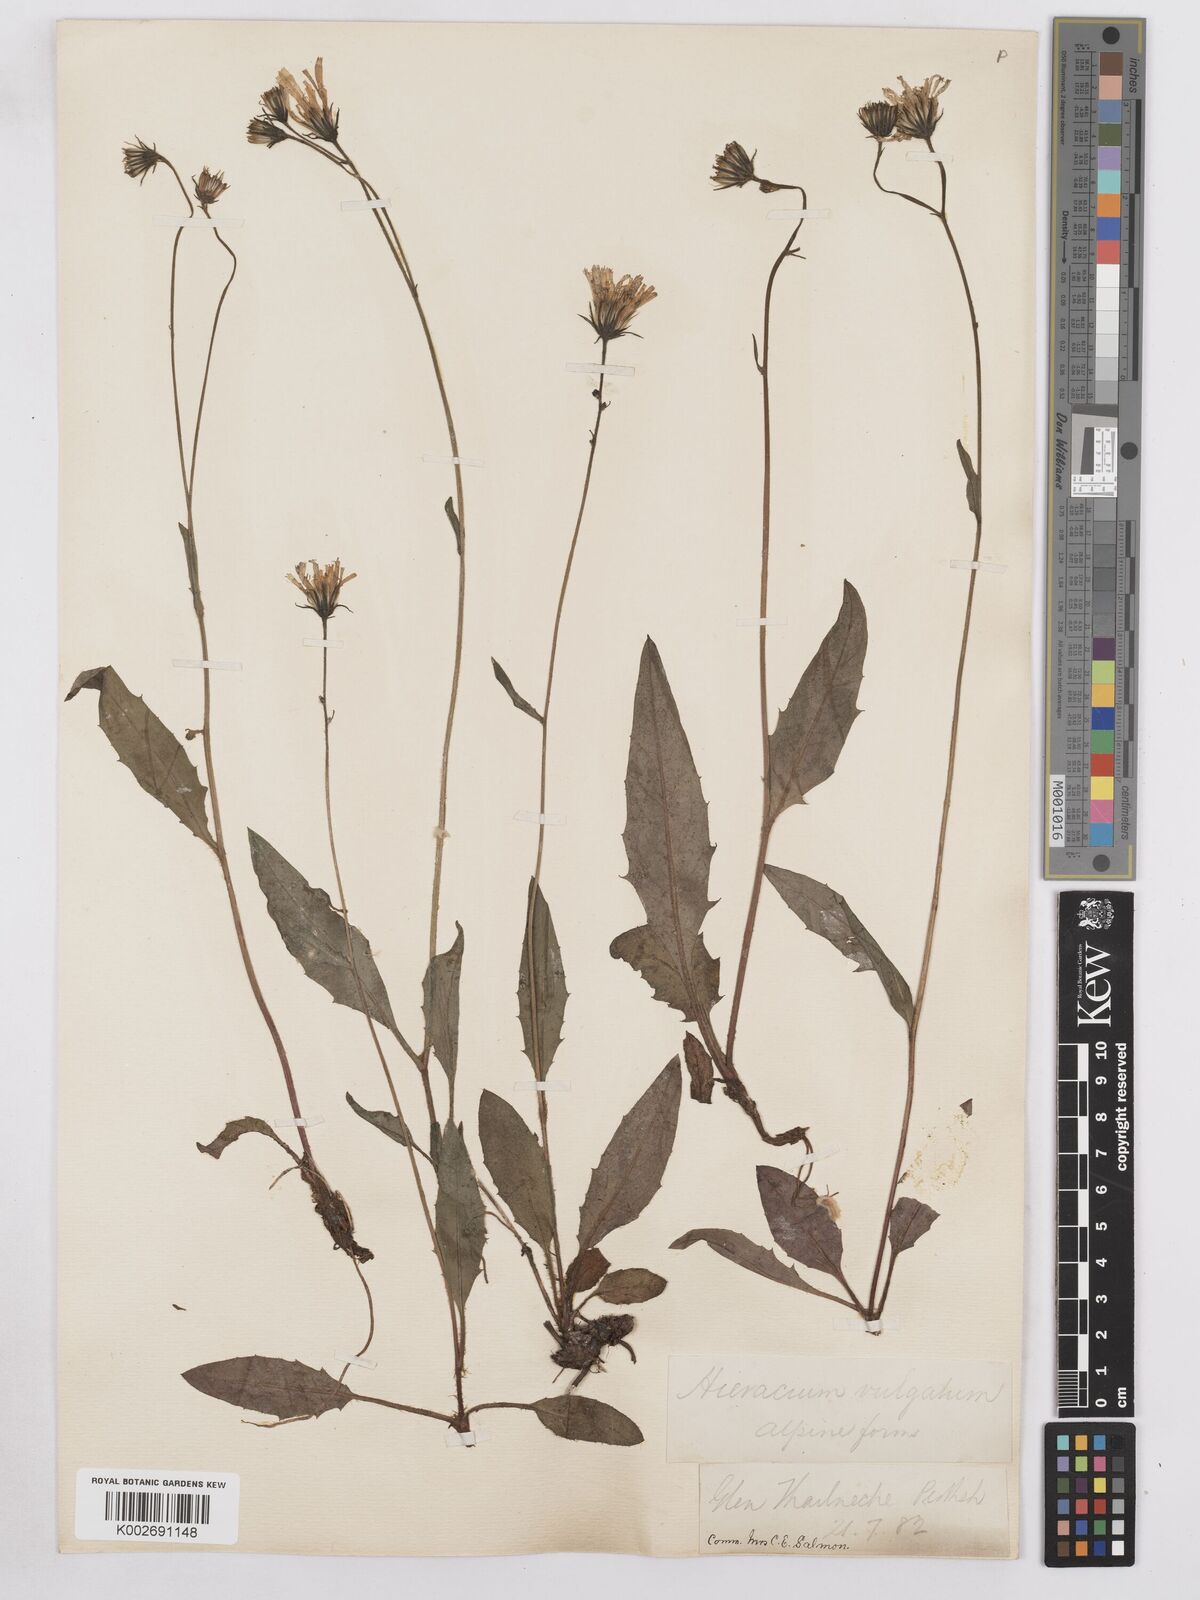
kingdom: Plantae
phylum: Tracheophyta
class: Magnoliopsida
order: Asterales
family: Asteraceae
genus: Hieracium
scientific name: Hieracium lachenalii
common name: Common hawkweed
